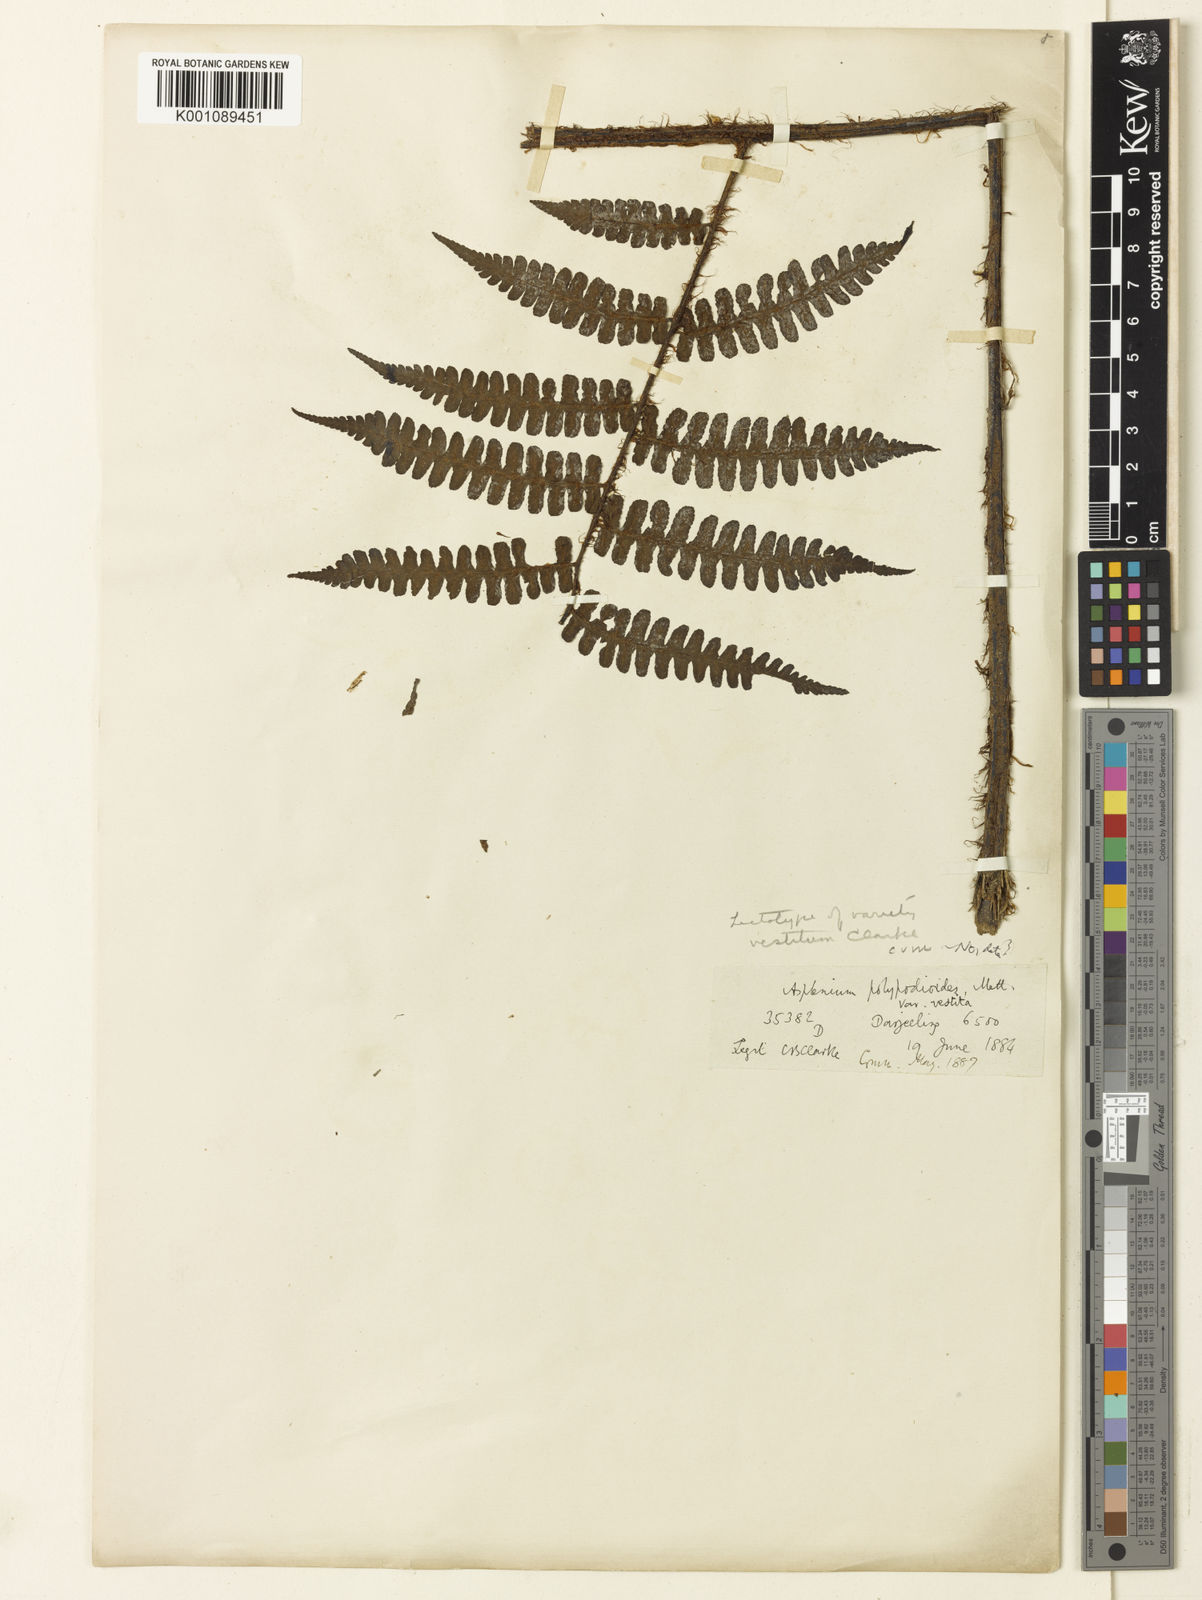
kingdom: Plantae
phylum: Tracheophyta
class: Polypodiopsida
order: Polypodiales
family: Athyriaceae
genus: Diplazium
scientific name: Diplazium himalayense
